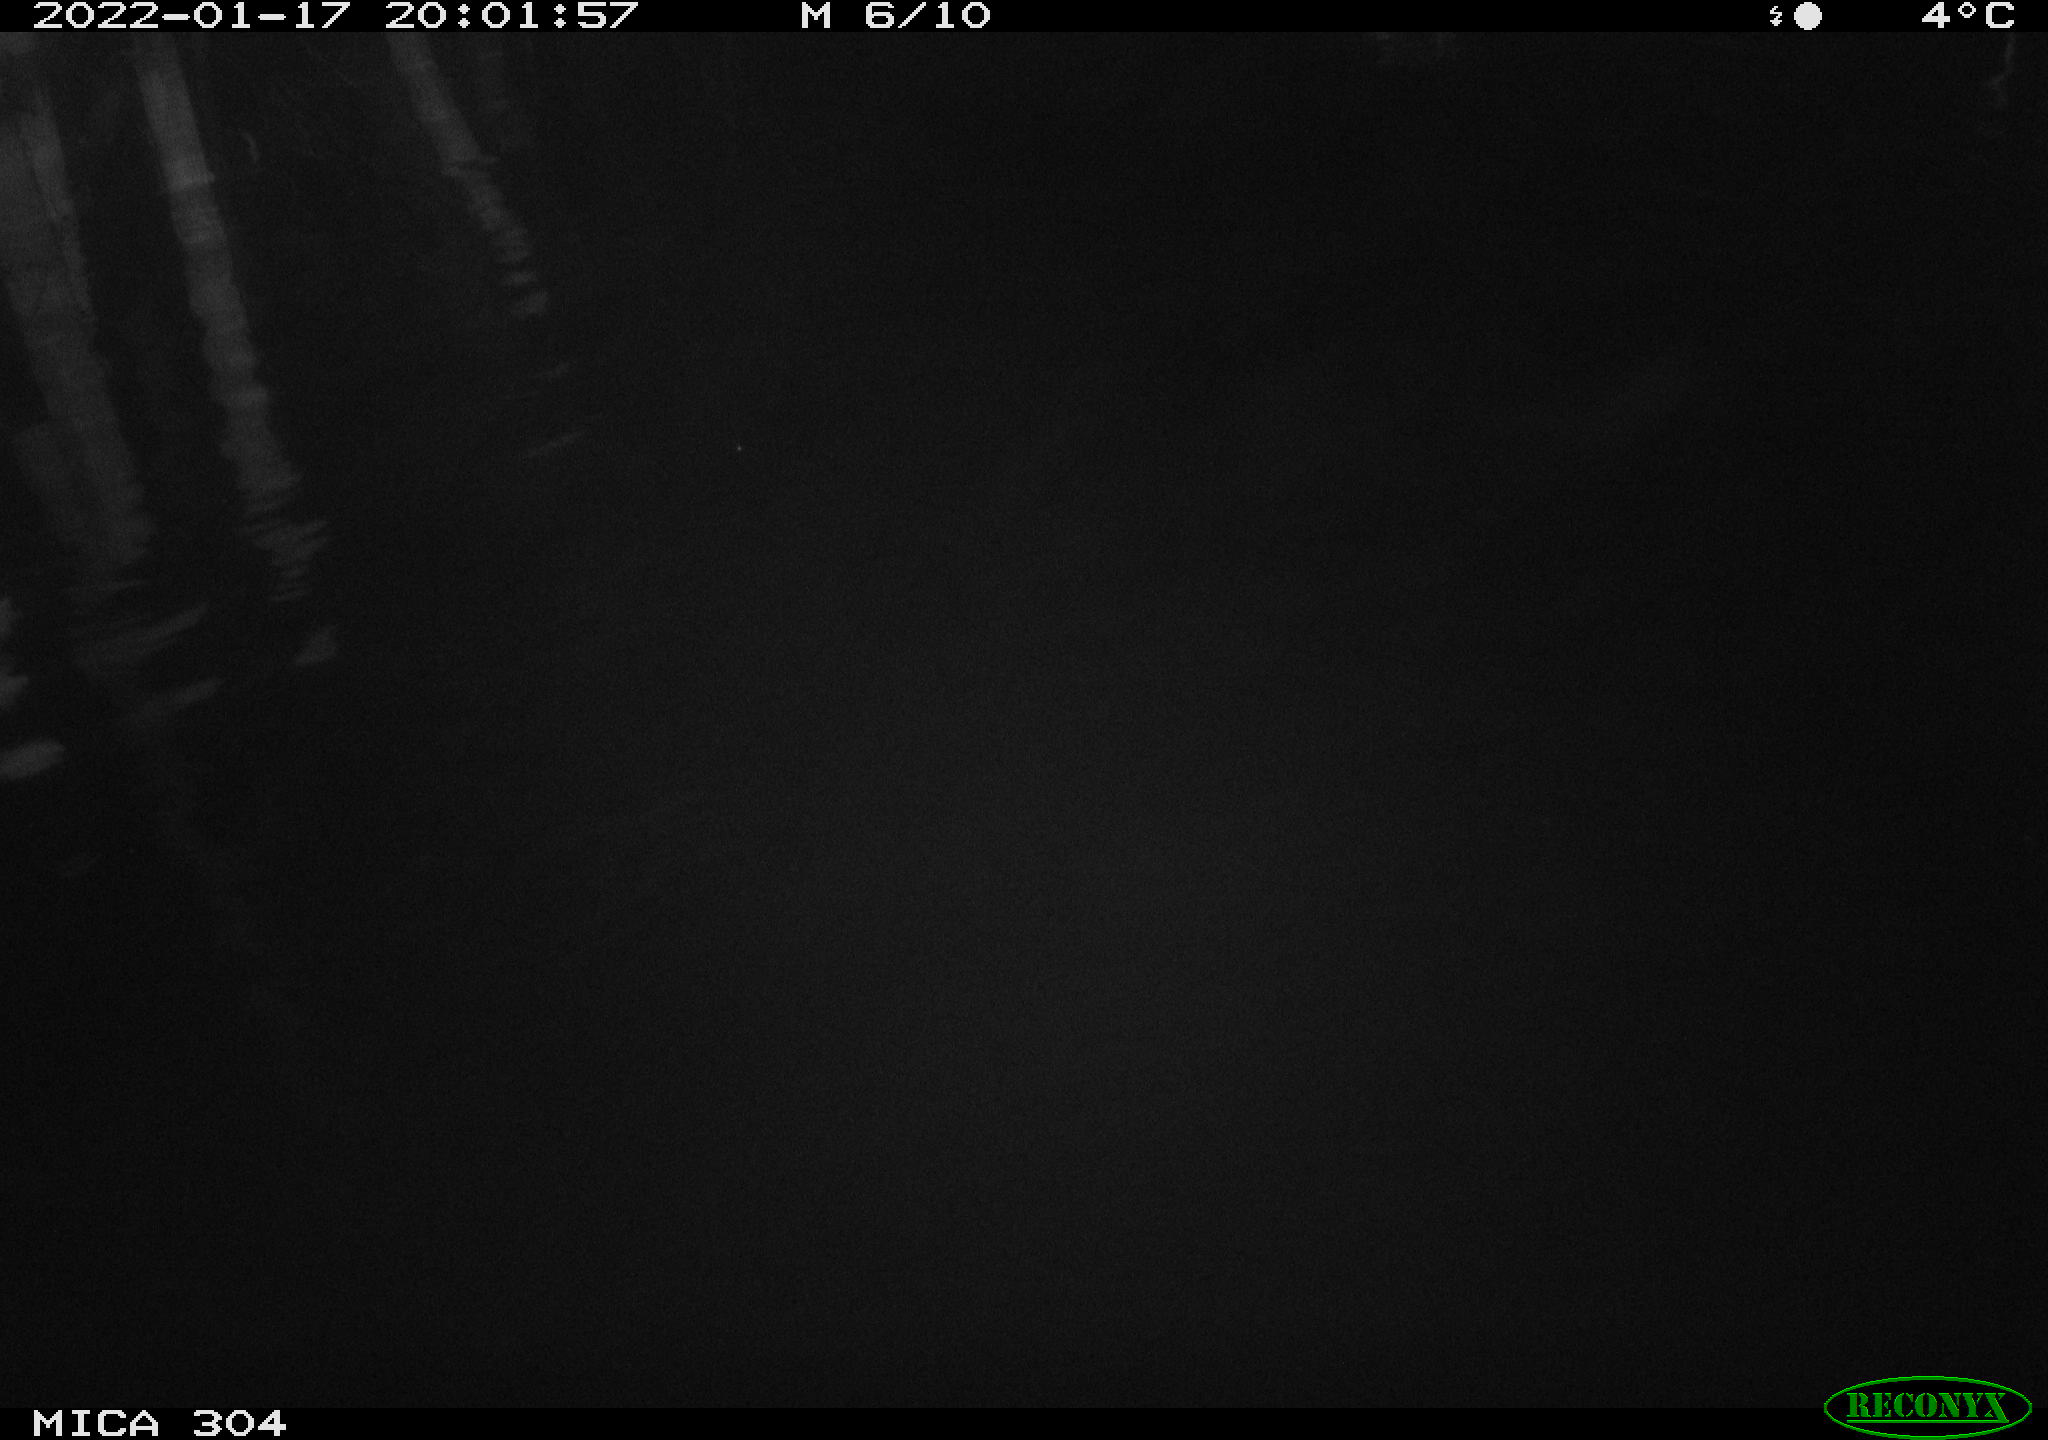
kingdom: Animalia
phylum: Chordata
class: Aves
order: Anseriformes
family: Anatidae
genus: Anas
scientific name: Anas
